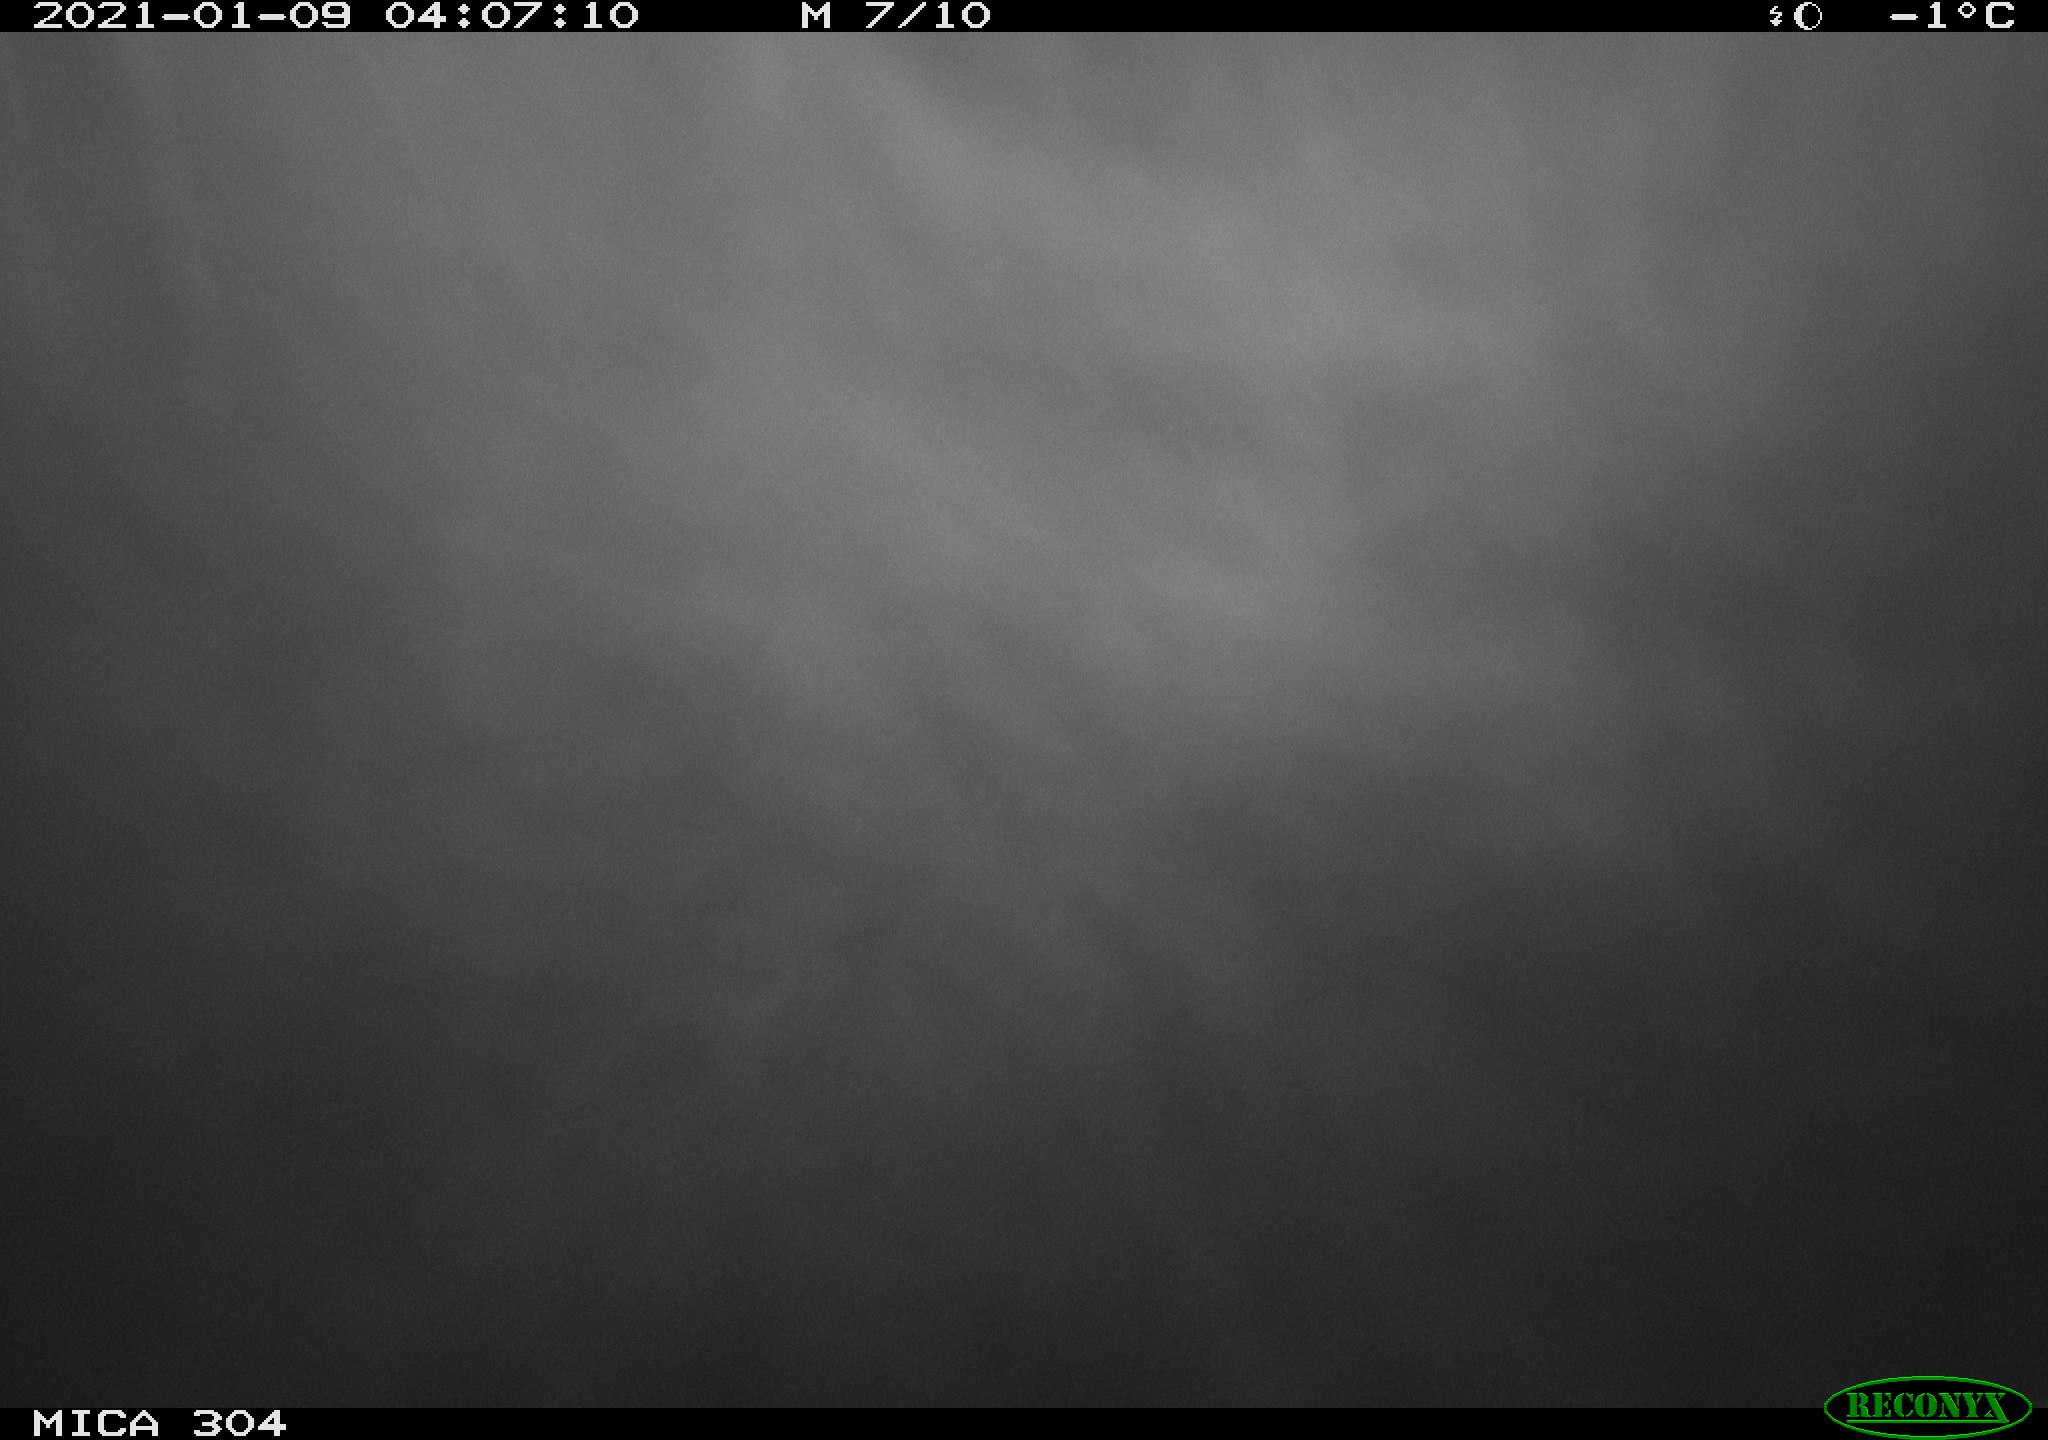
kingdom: Animalia
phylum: Chordata
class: Aves
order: Anseriformes
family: Anatidae
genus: Anas
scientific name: Anas platyrhynchos
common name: Mallard
